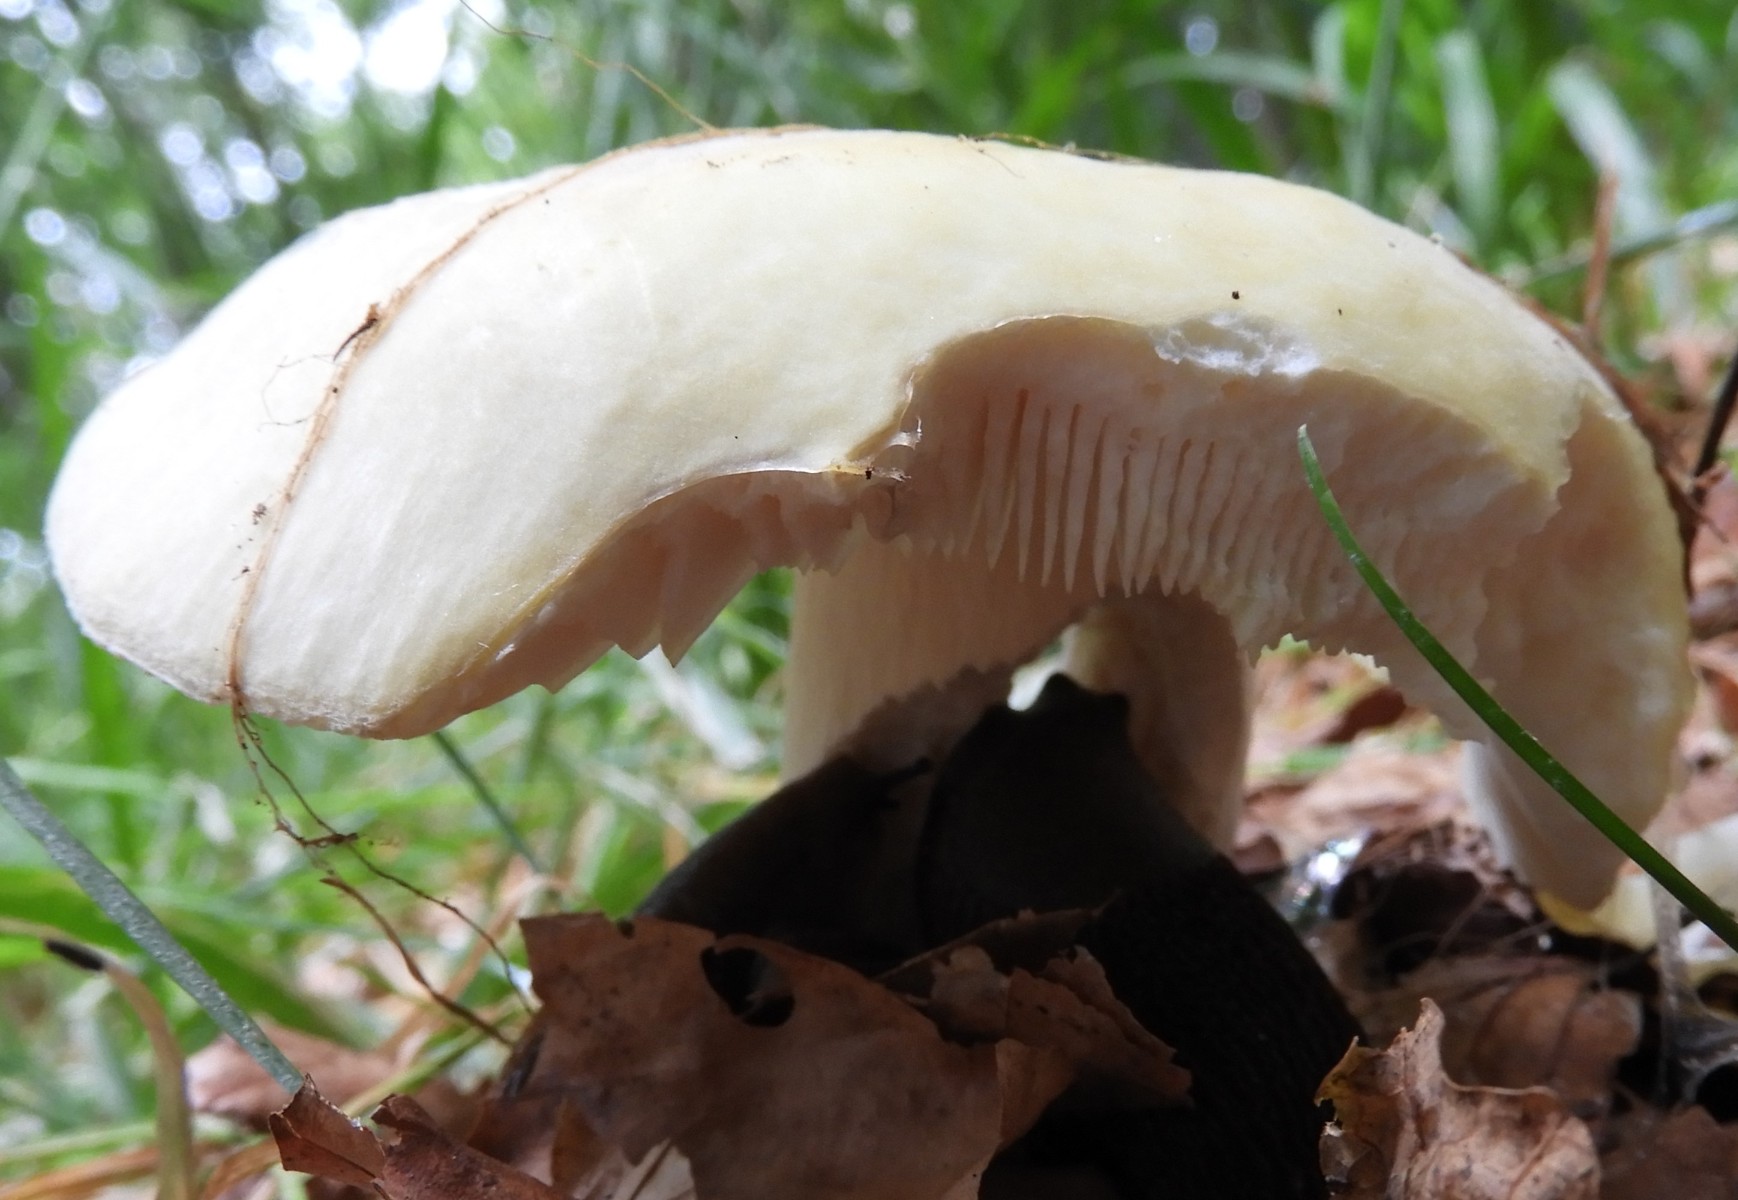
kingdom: Fungi
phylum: Basidiomycota
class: Agaricomycetes
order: Russulales
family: Russulaceae
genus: Russula
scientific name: Russula violeipes
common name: ferskengul skørhat
